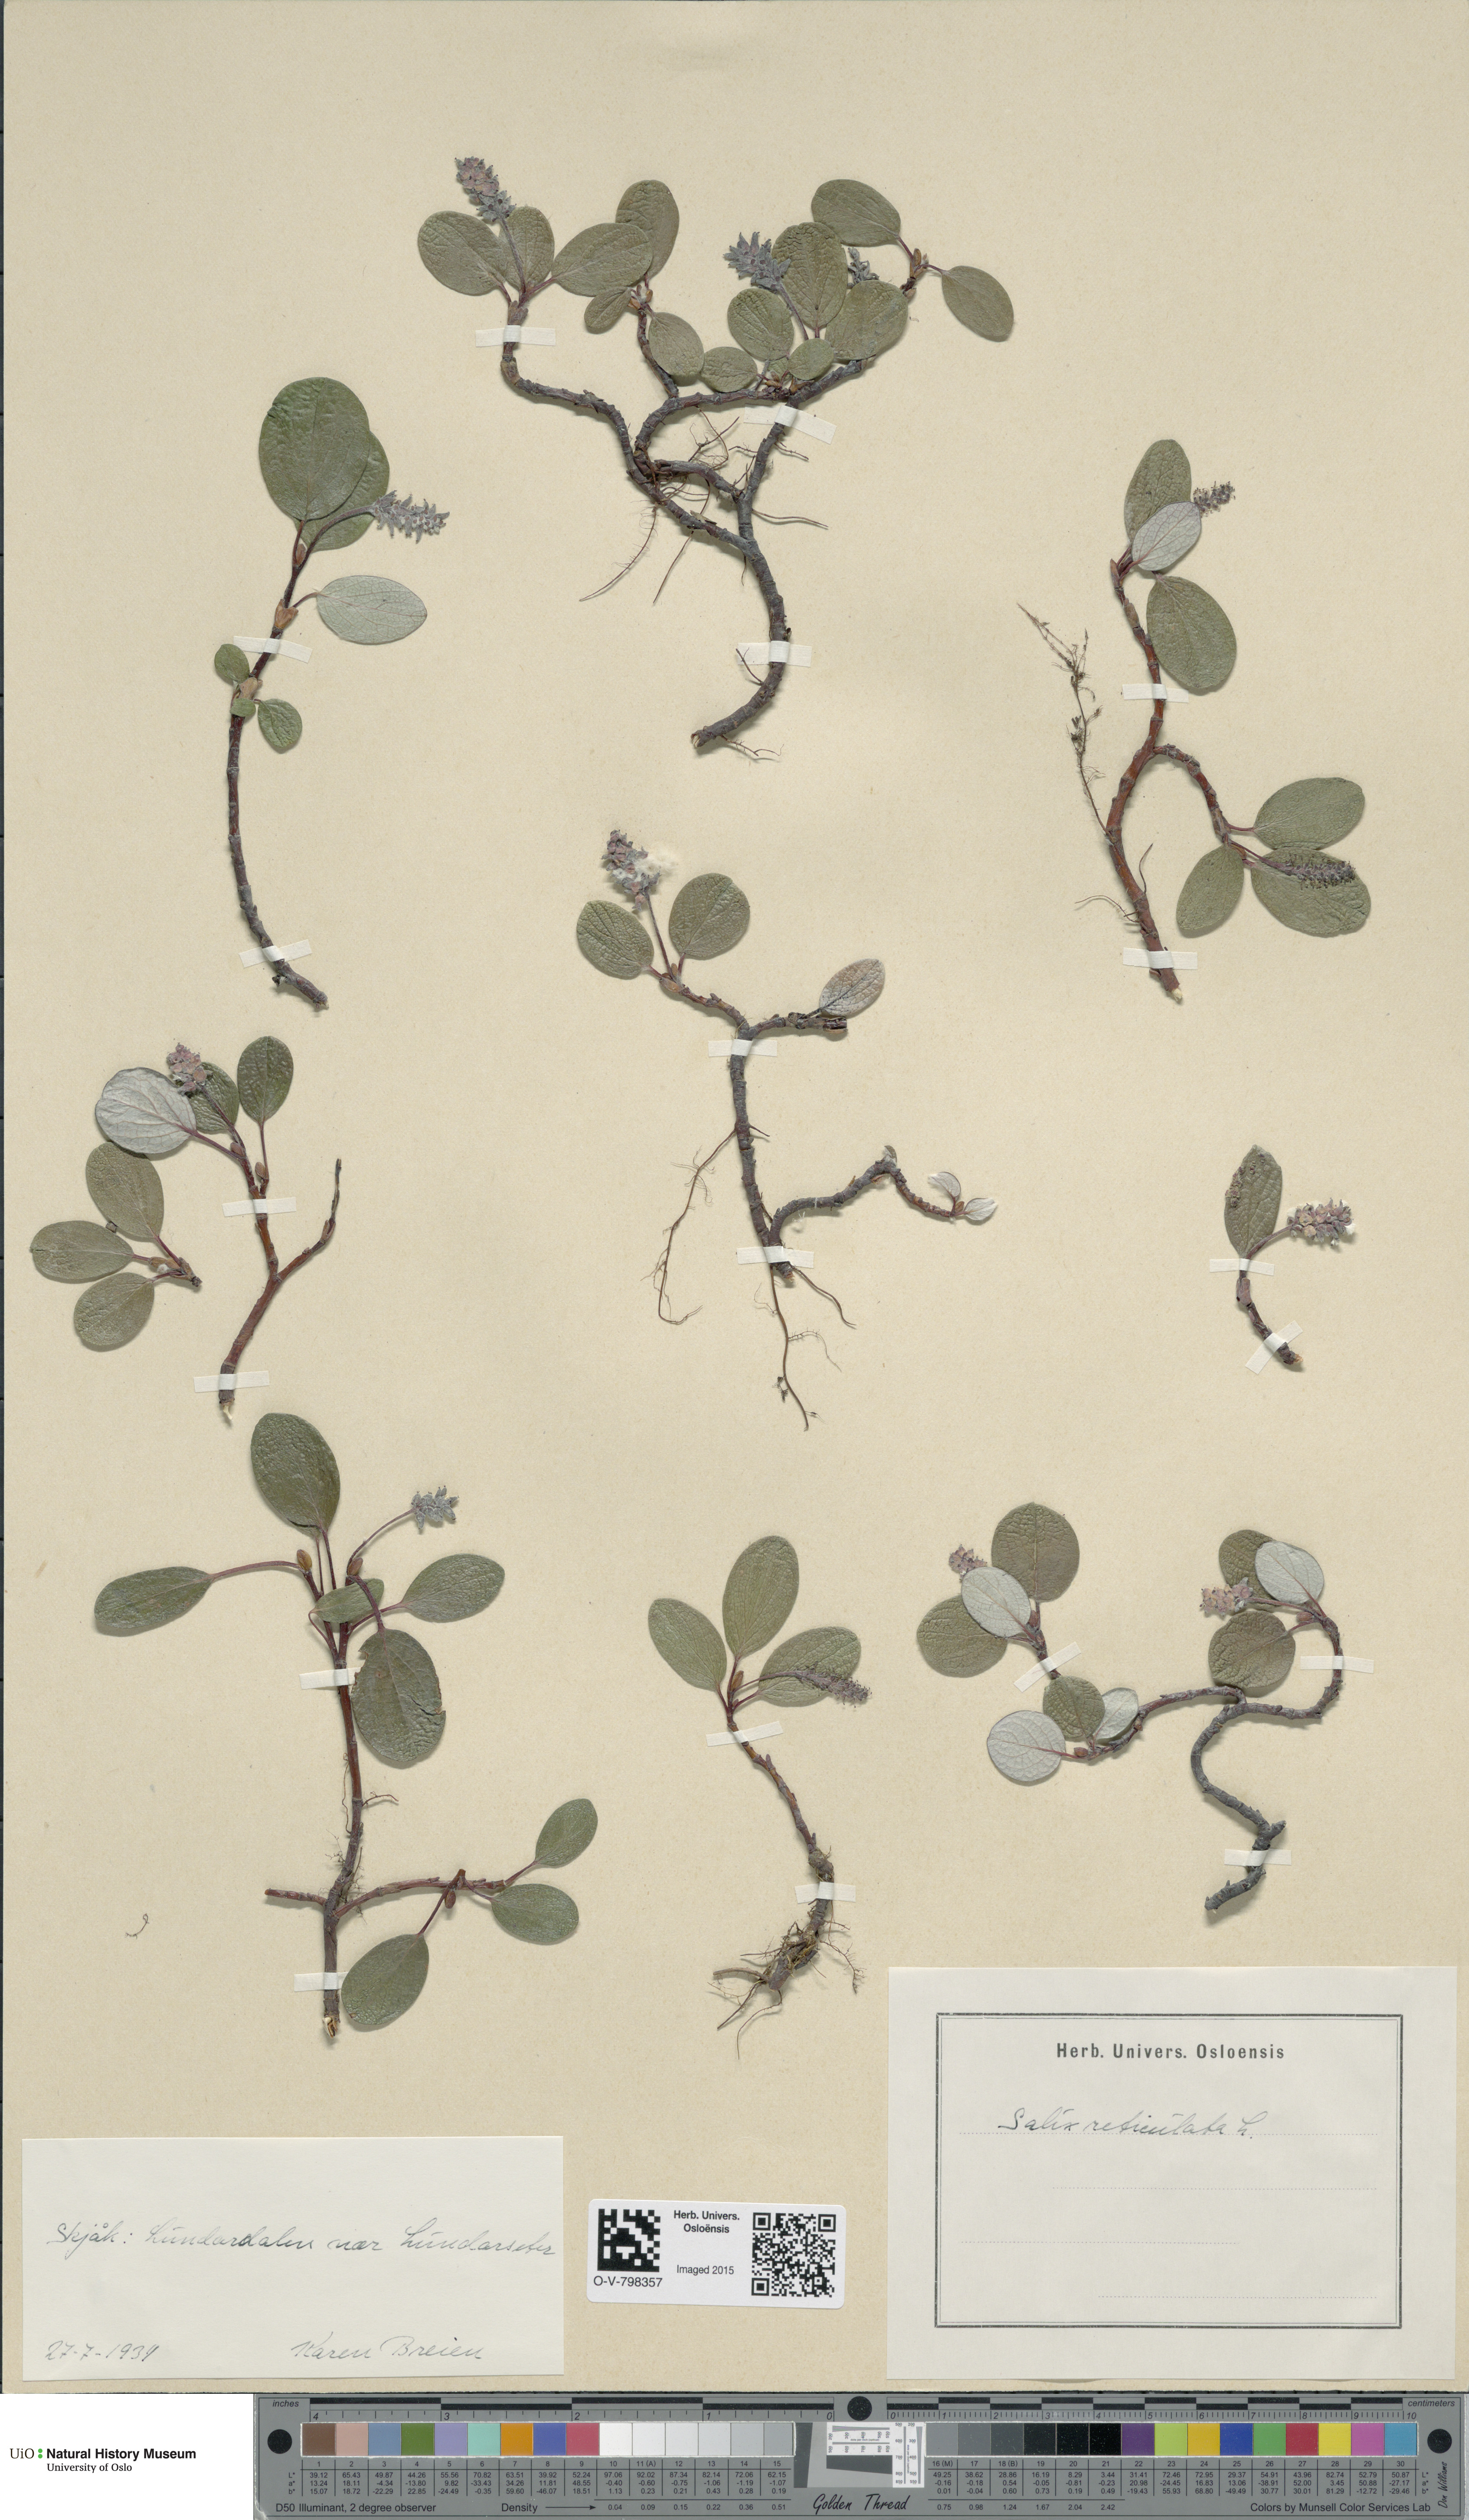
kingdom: Plantae
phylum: Tracheophyta
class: Magnoliopsida
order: Malpighiales
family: Salicaceae
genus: Salix
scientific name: Salix reticulata
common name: Net-leaved willow
